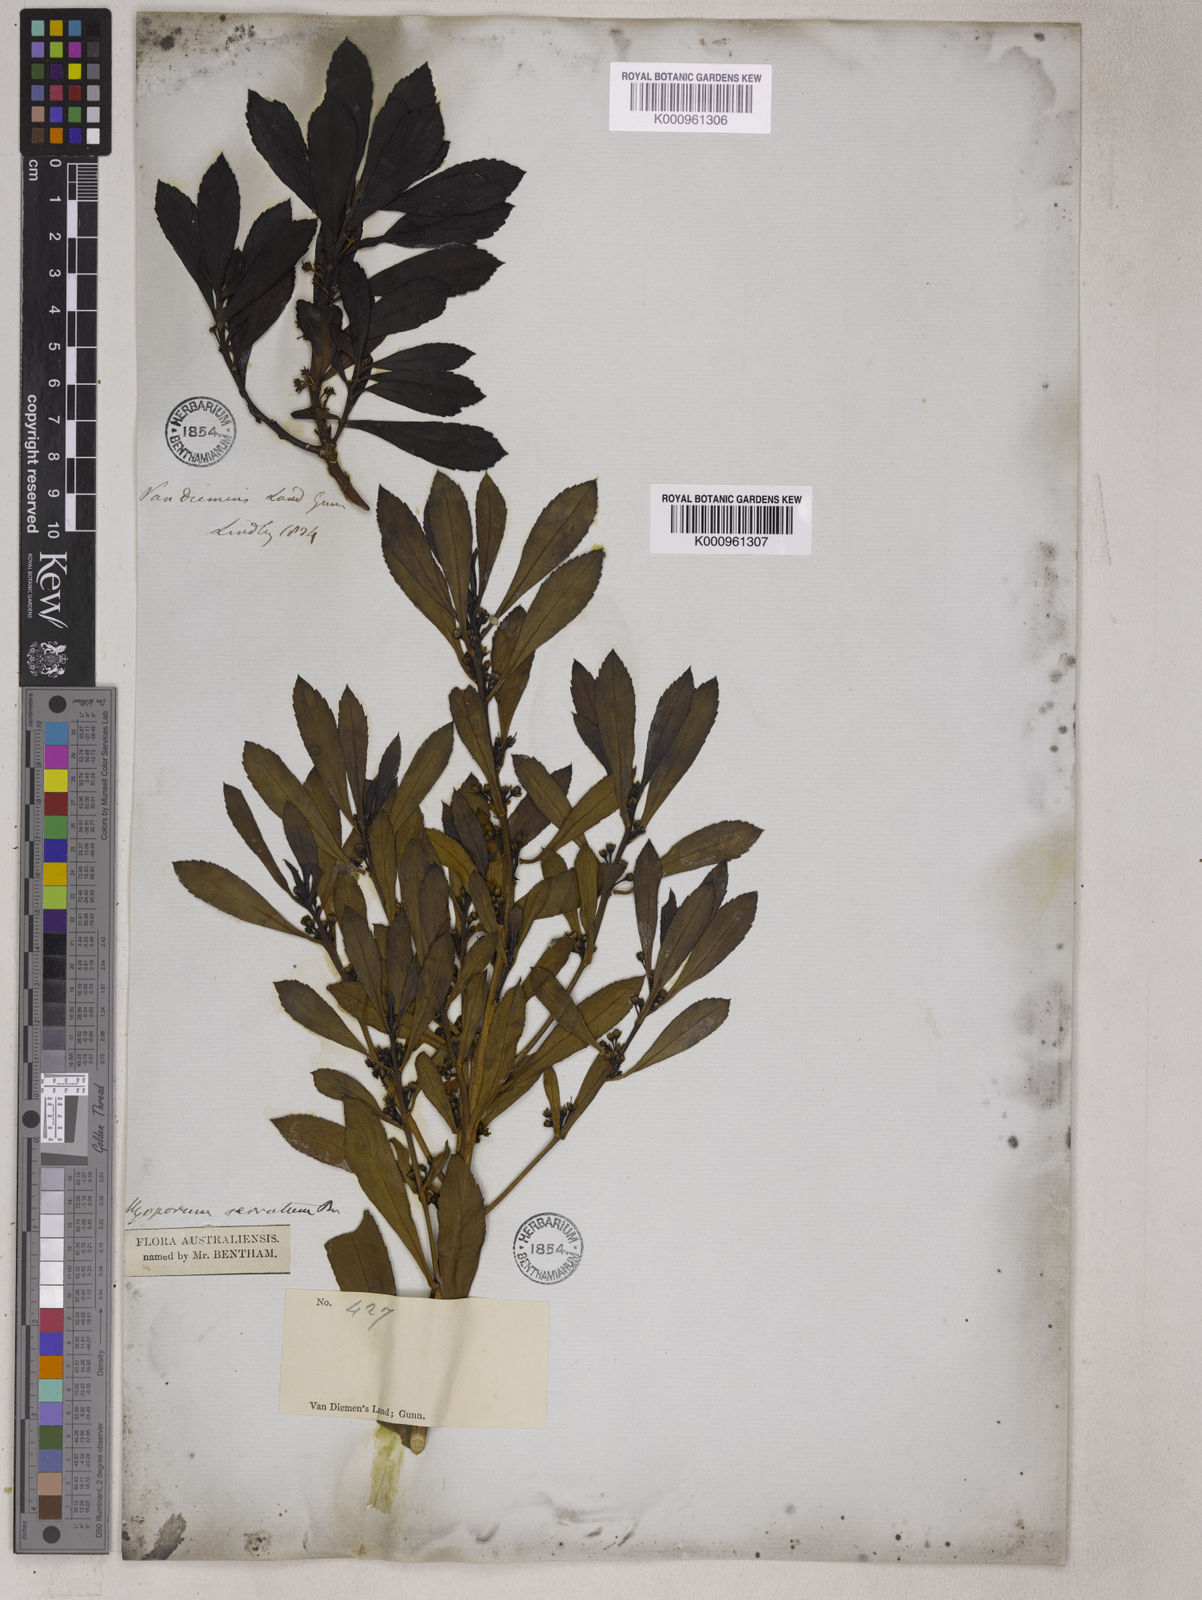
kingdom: Plantae
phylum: Tracheophyta
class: Magnoliopsida
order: Lamiales
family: Scrophulariaceae
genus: Myoporum
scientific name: Myoporum insulare
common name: Common boobialla
